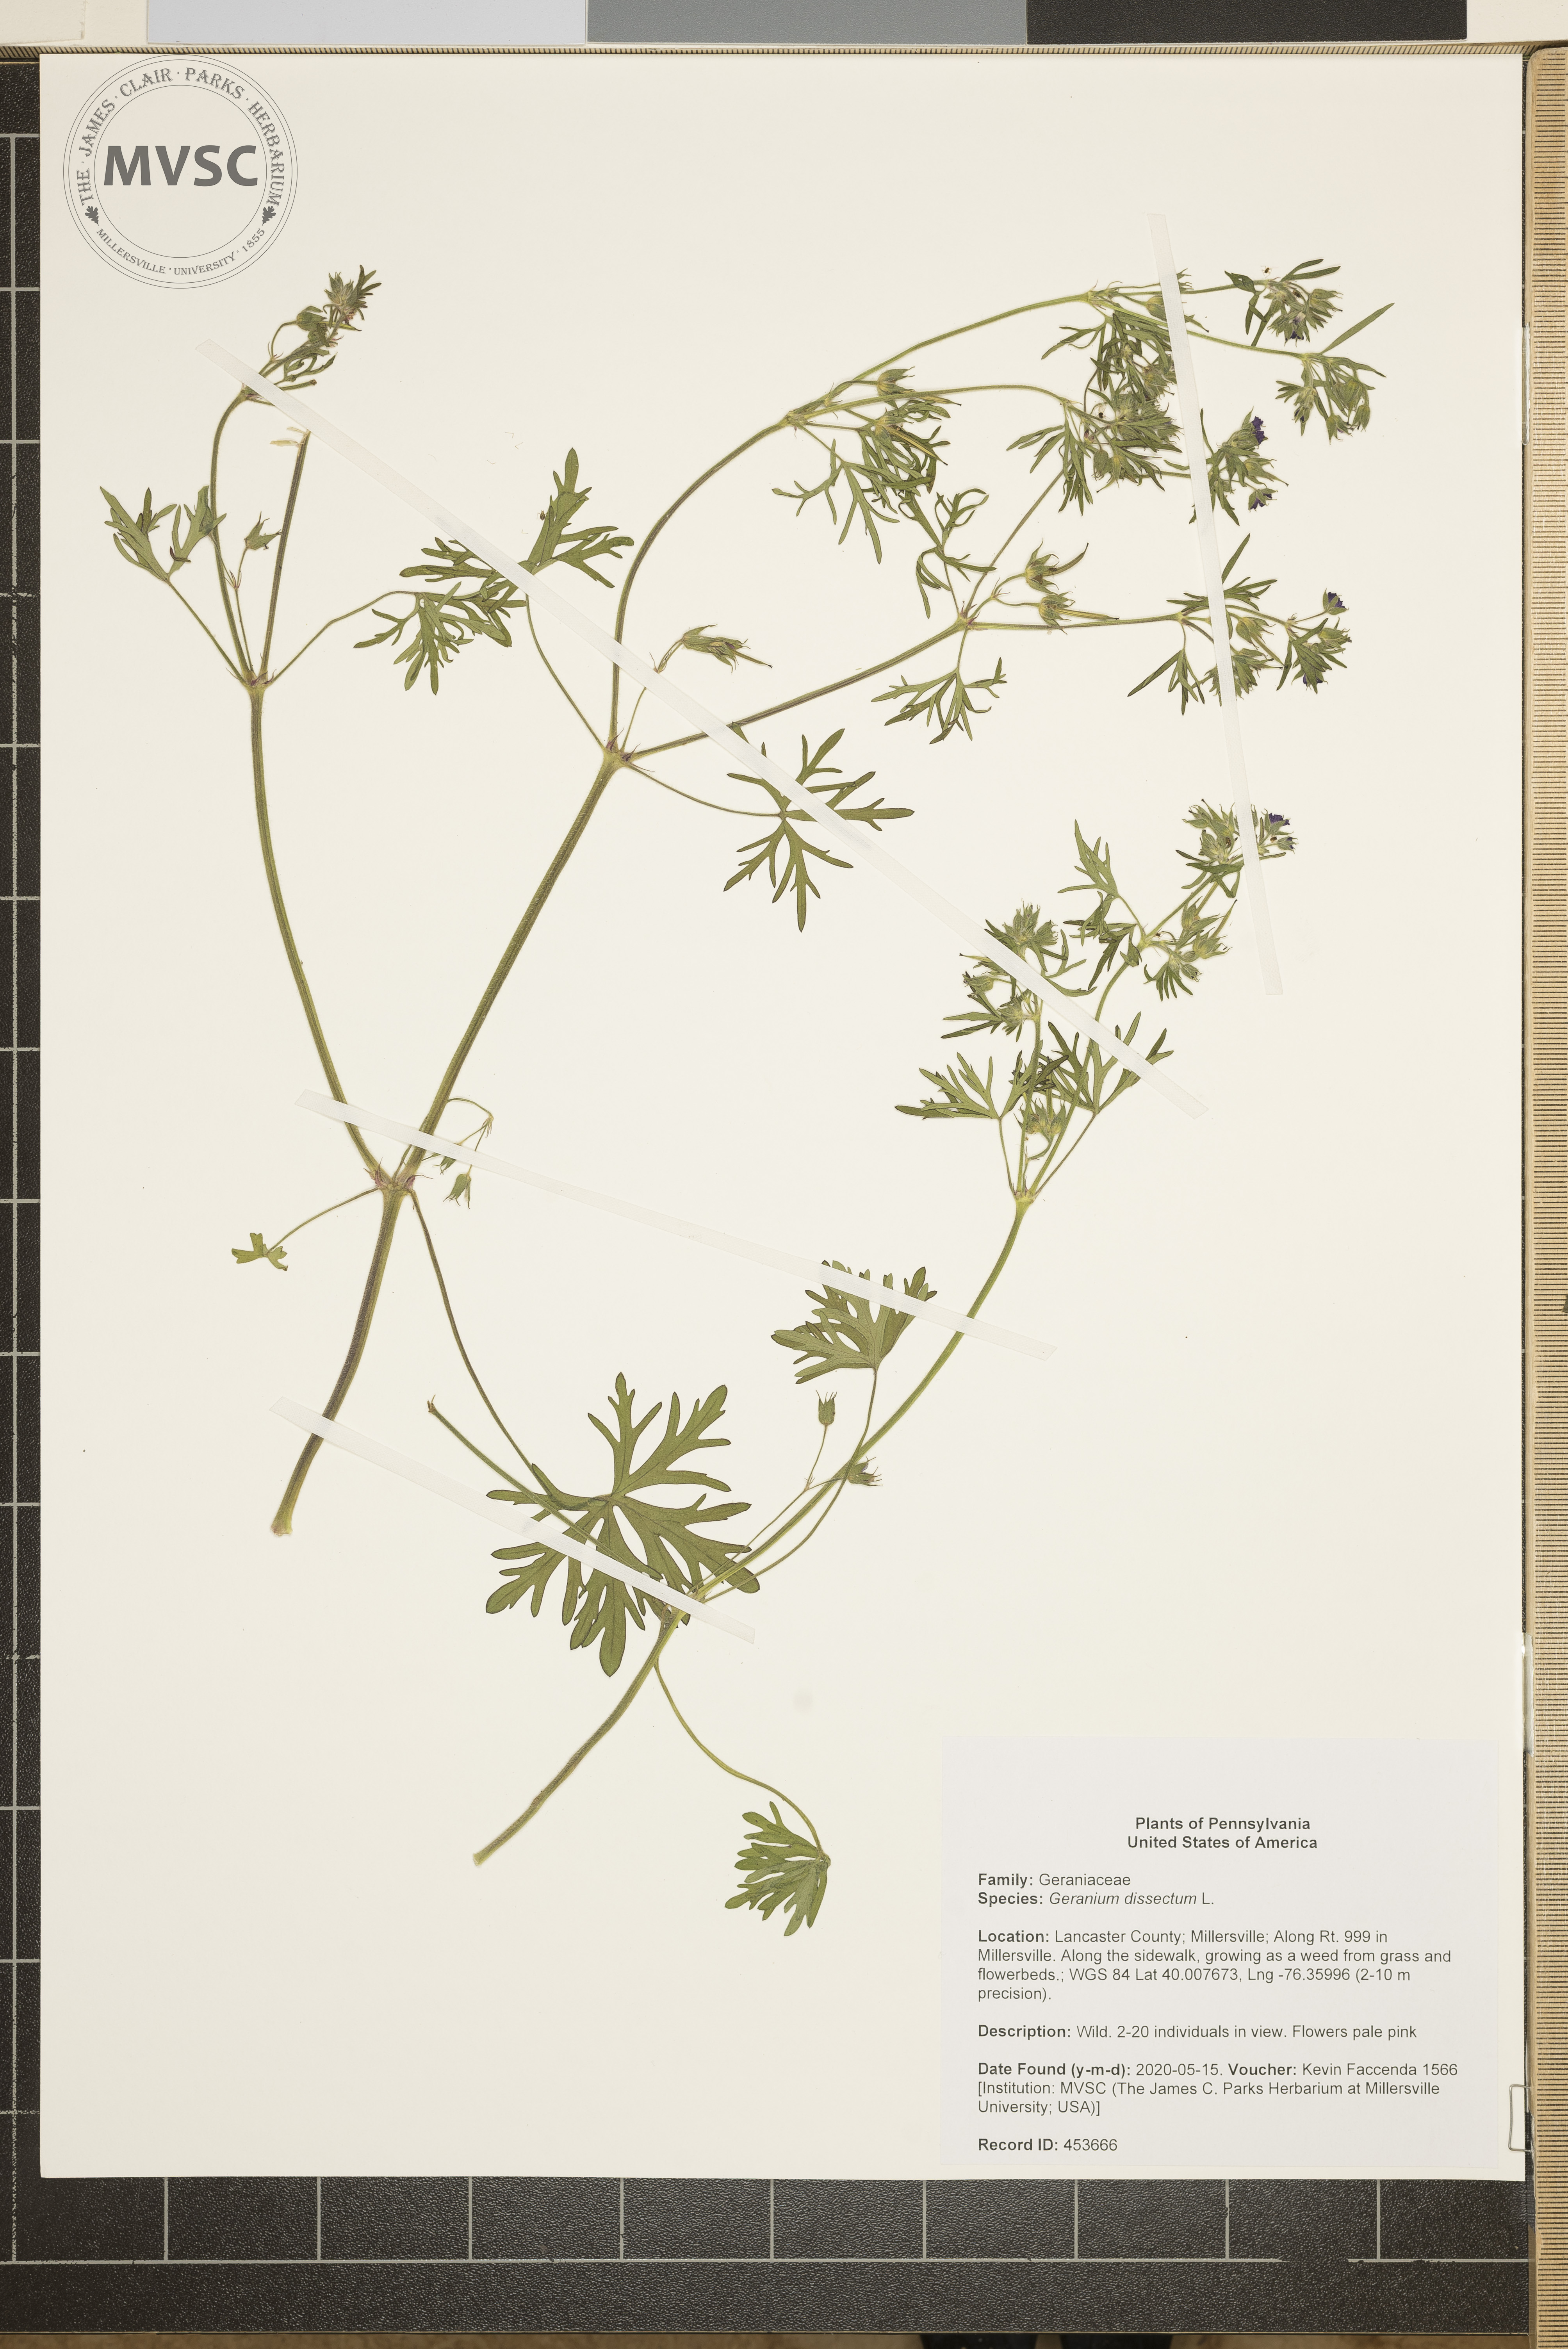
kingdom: Plantae
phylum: Tracheophyta
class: Magnoliopsida
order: Geraniales
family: Geraniaceae
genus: Geranium
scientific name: Geranium dissectum
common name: Cut-leaved crane's-bill
